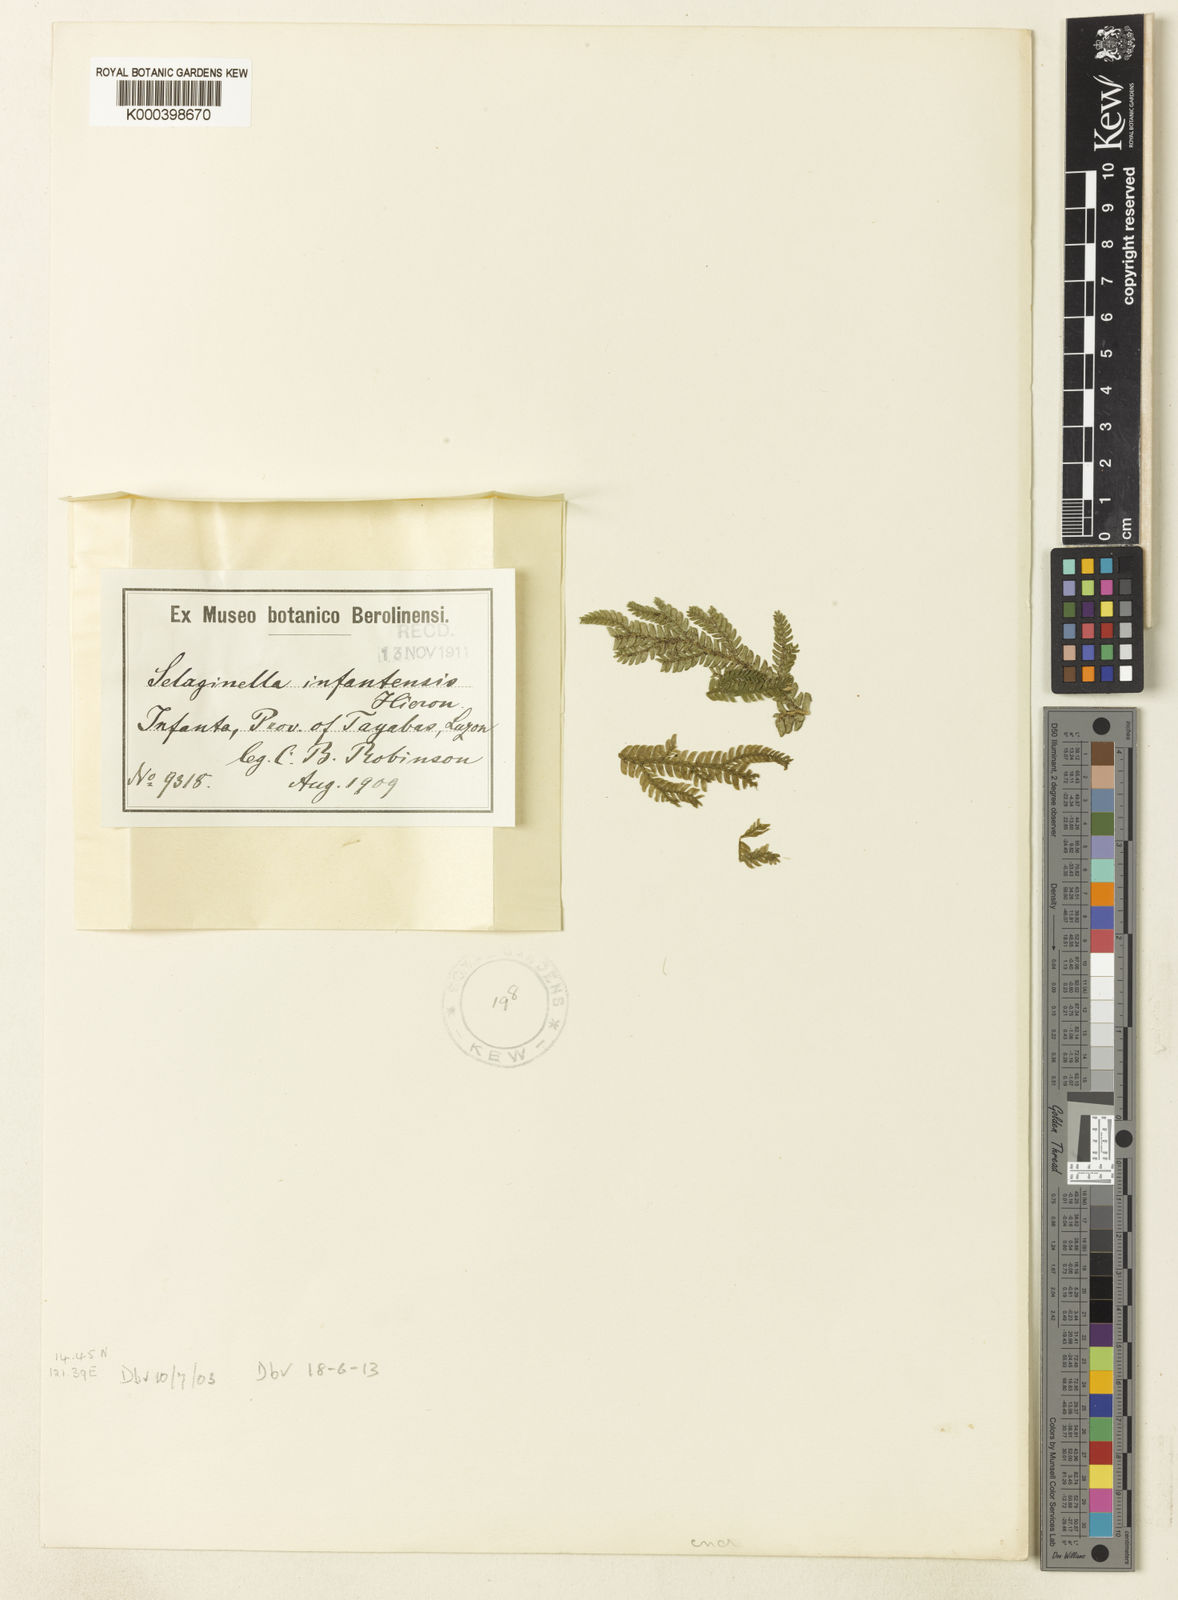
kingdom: Plantae
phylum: Tracheophyta
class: Lycopodiopsida
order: Selaginellales
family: Selaginellaceae
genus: Selaginella
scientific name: Selaginella
